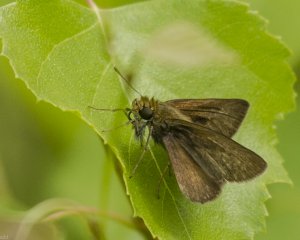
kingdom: Animalia
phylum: Arthropoda
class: Insecta
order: Lepidoptera
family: Hesperiidae
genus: Euphyes
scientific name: Euphyes vestris
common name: Dun Skipper
